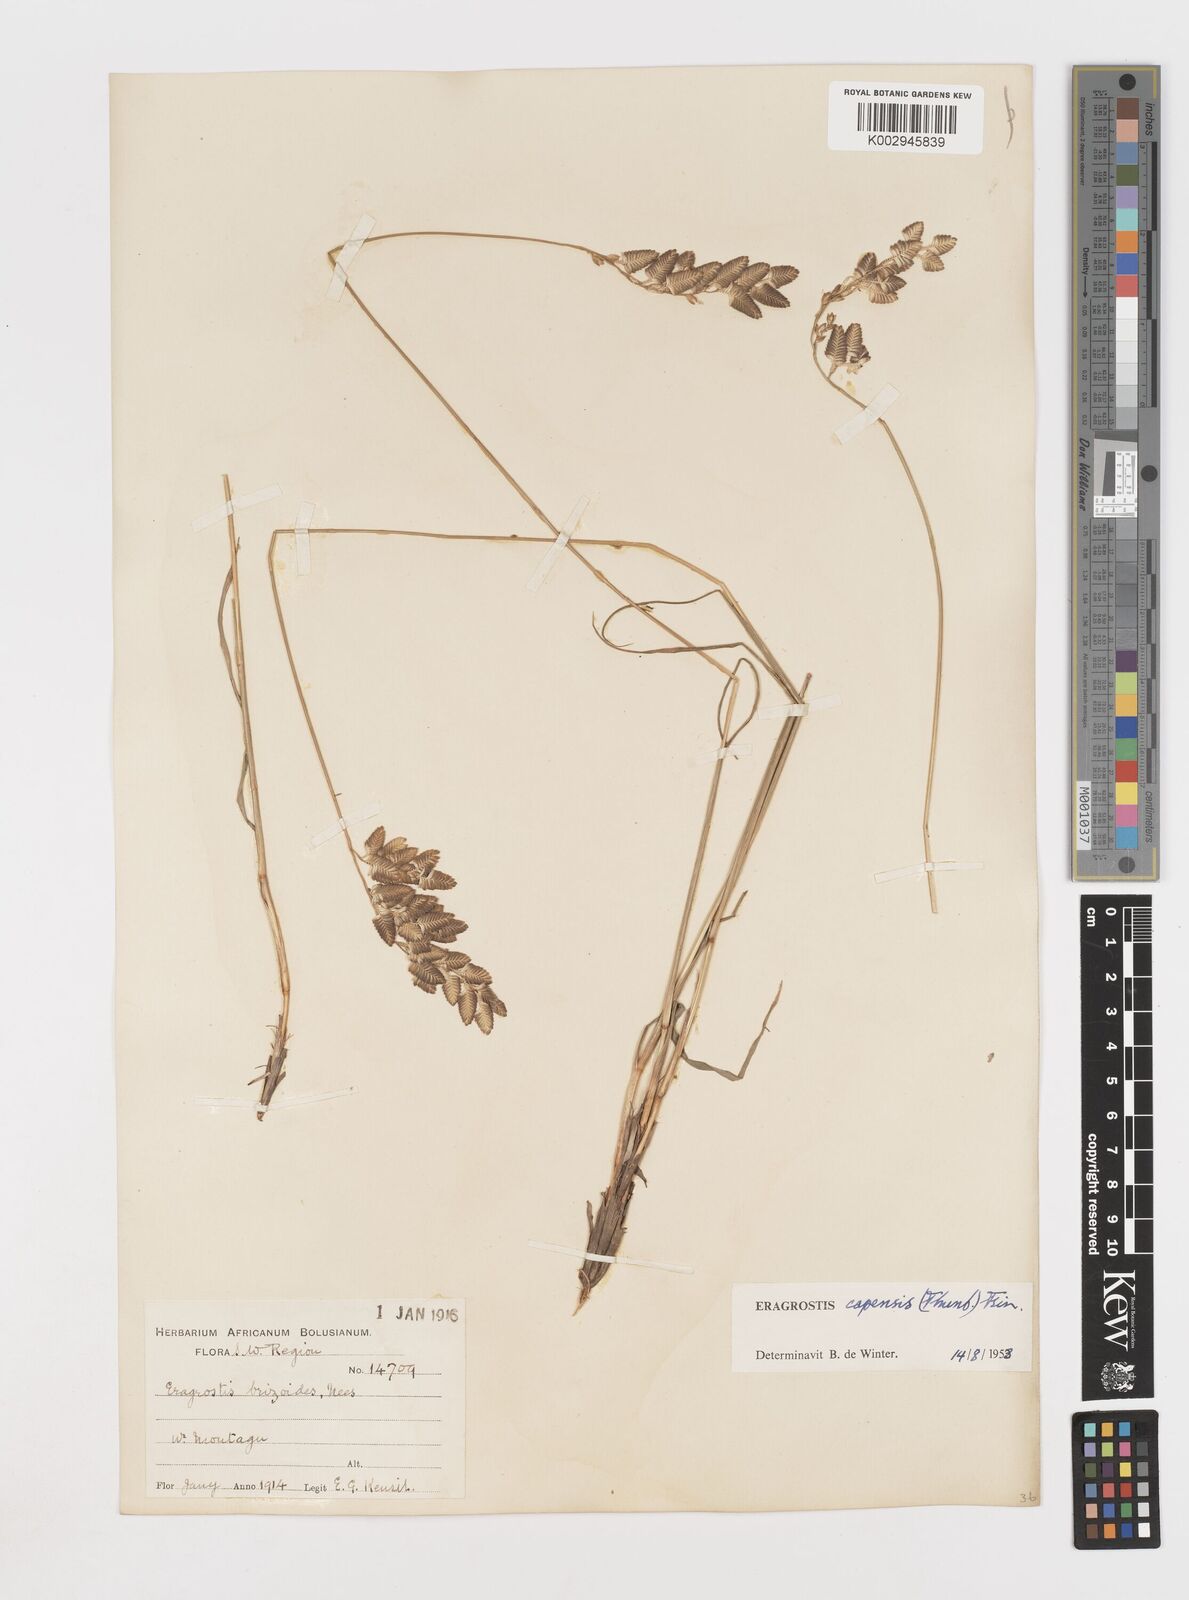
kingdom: Plantae
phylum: Tracheophyta
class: Liliopsida
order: Poales
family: Poaceae
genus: Eragrostis
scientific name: Eragrostis capensis
